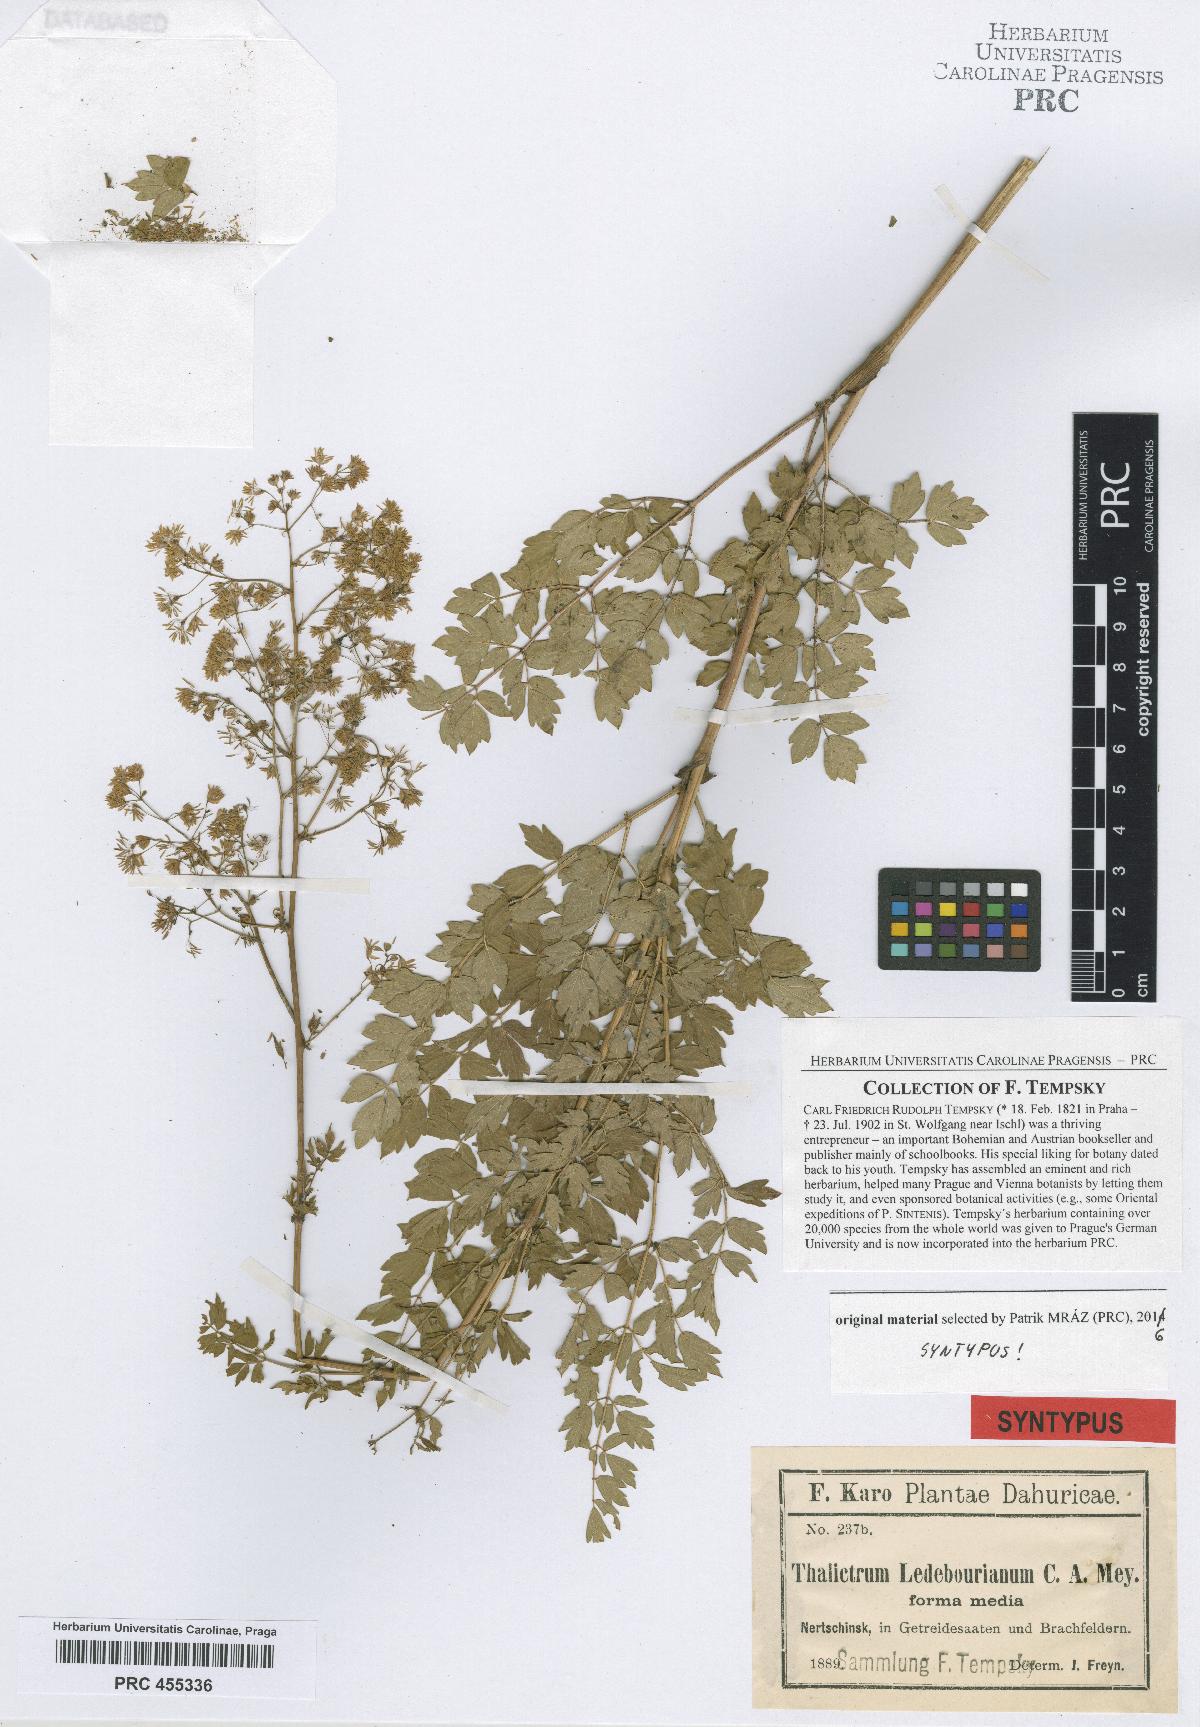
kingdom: Plantae
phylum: Tracheophyta
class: Magnoliopsida
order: Ranunculales
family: Ranunculaceae
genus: Thalictrum
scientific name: Thalictrum squarrosum
